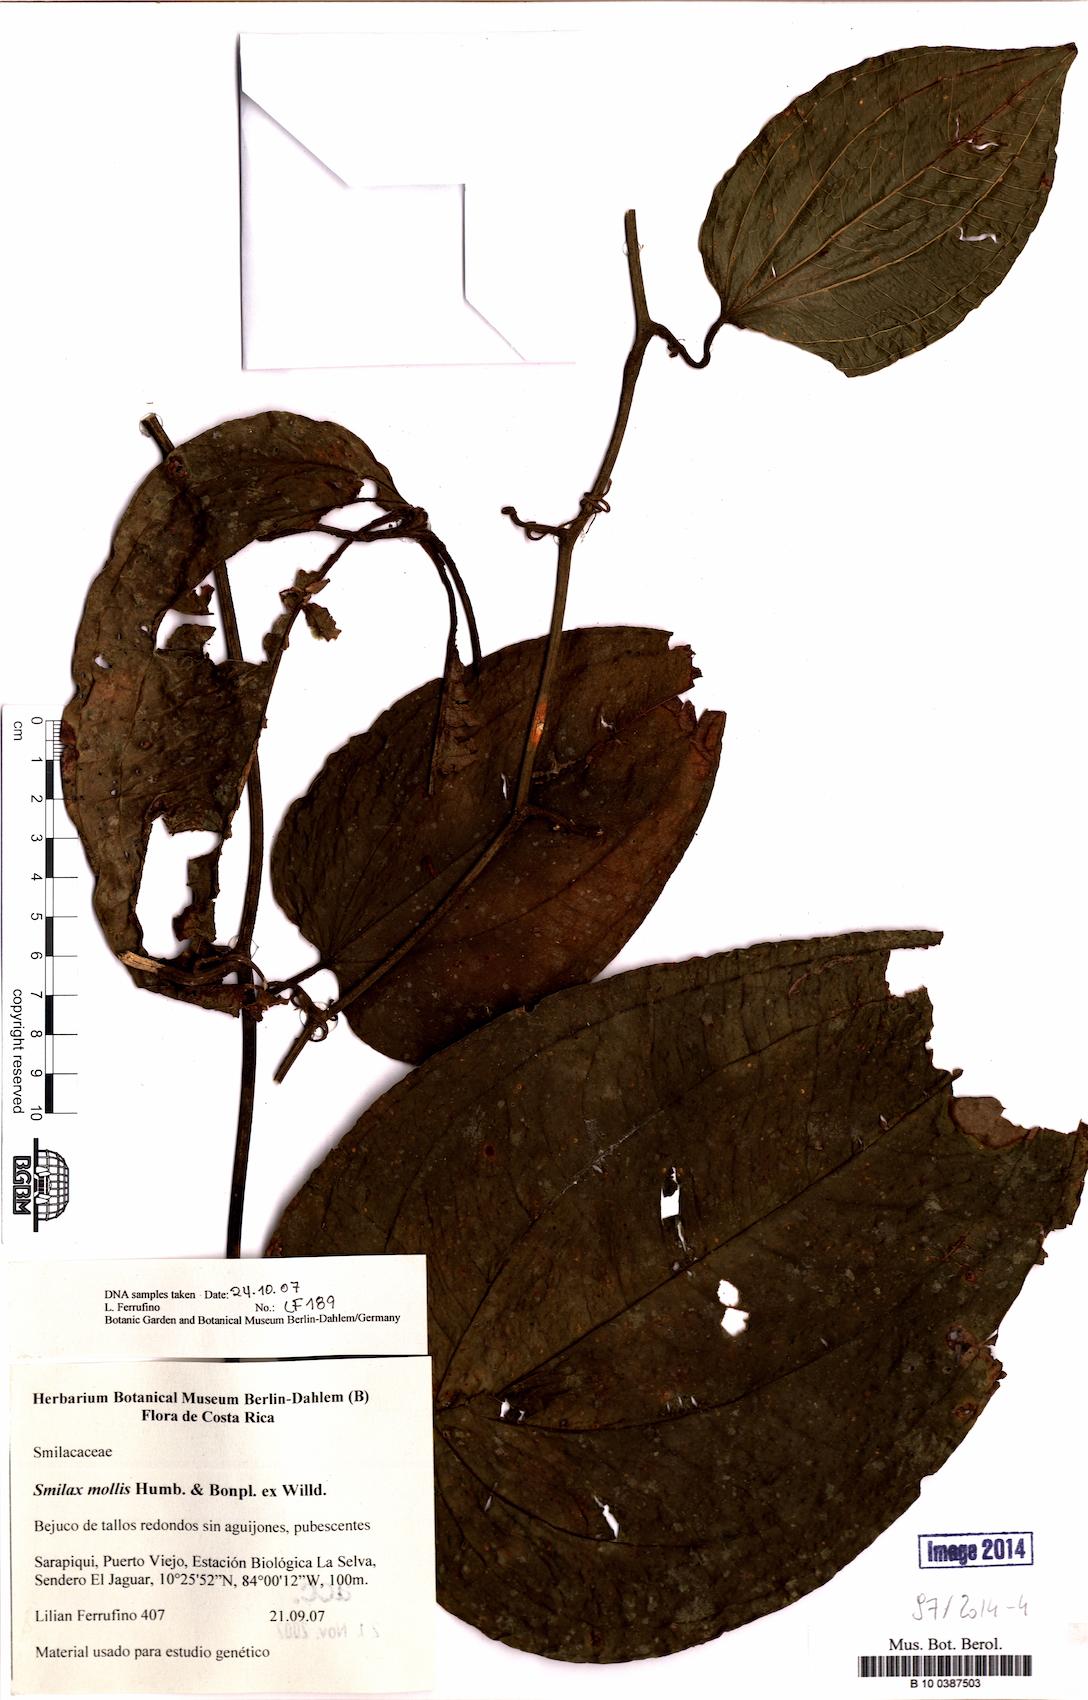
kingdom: Plantae
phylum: Tracheophyta
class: Liliopsida
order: Liliales
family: Smilacaceae
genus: Smilax
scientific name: Smilax mollis
